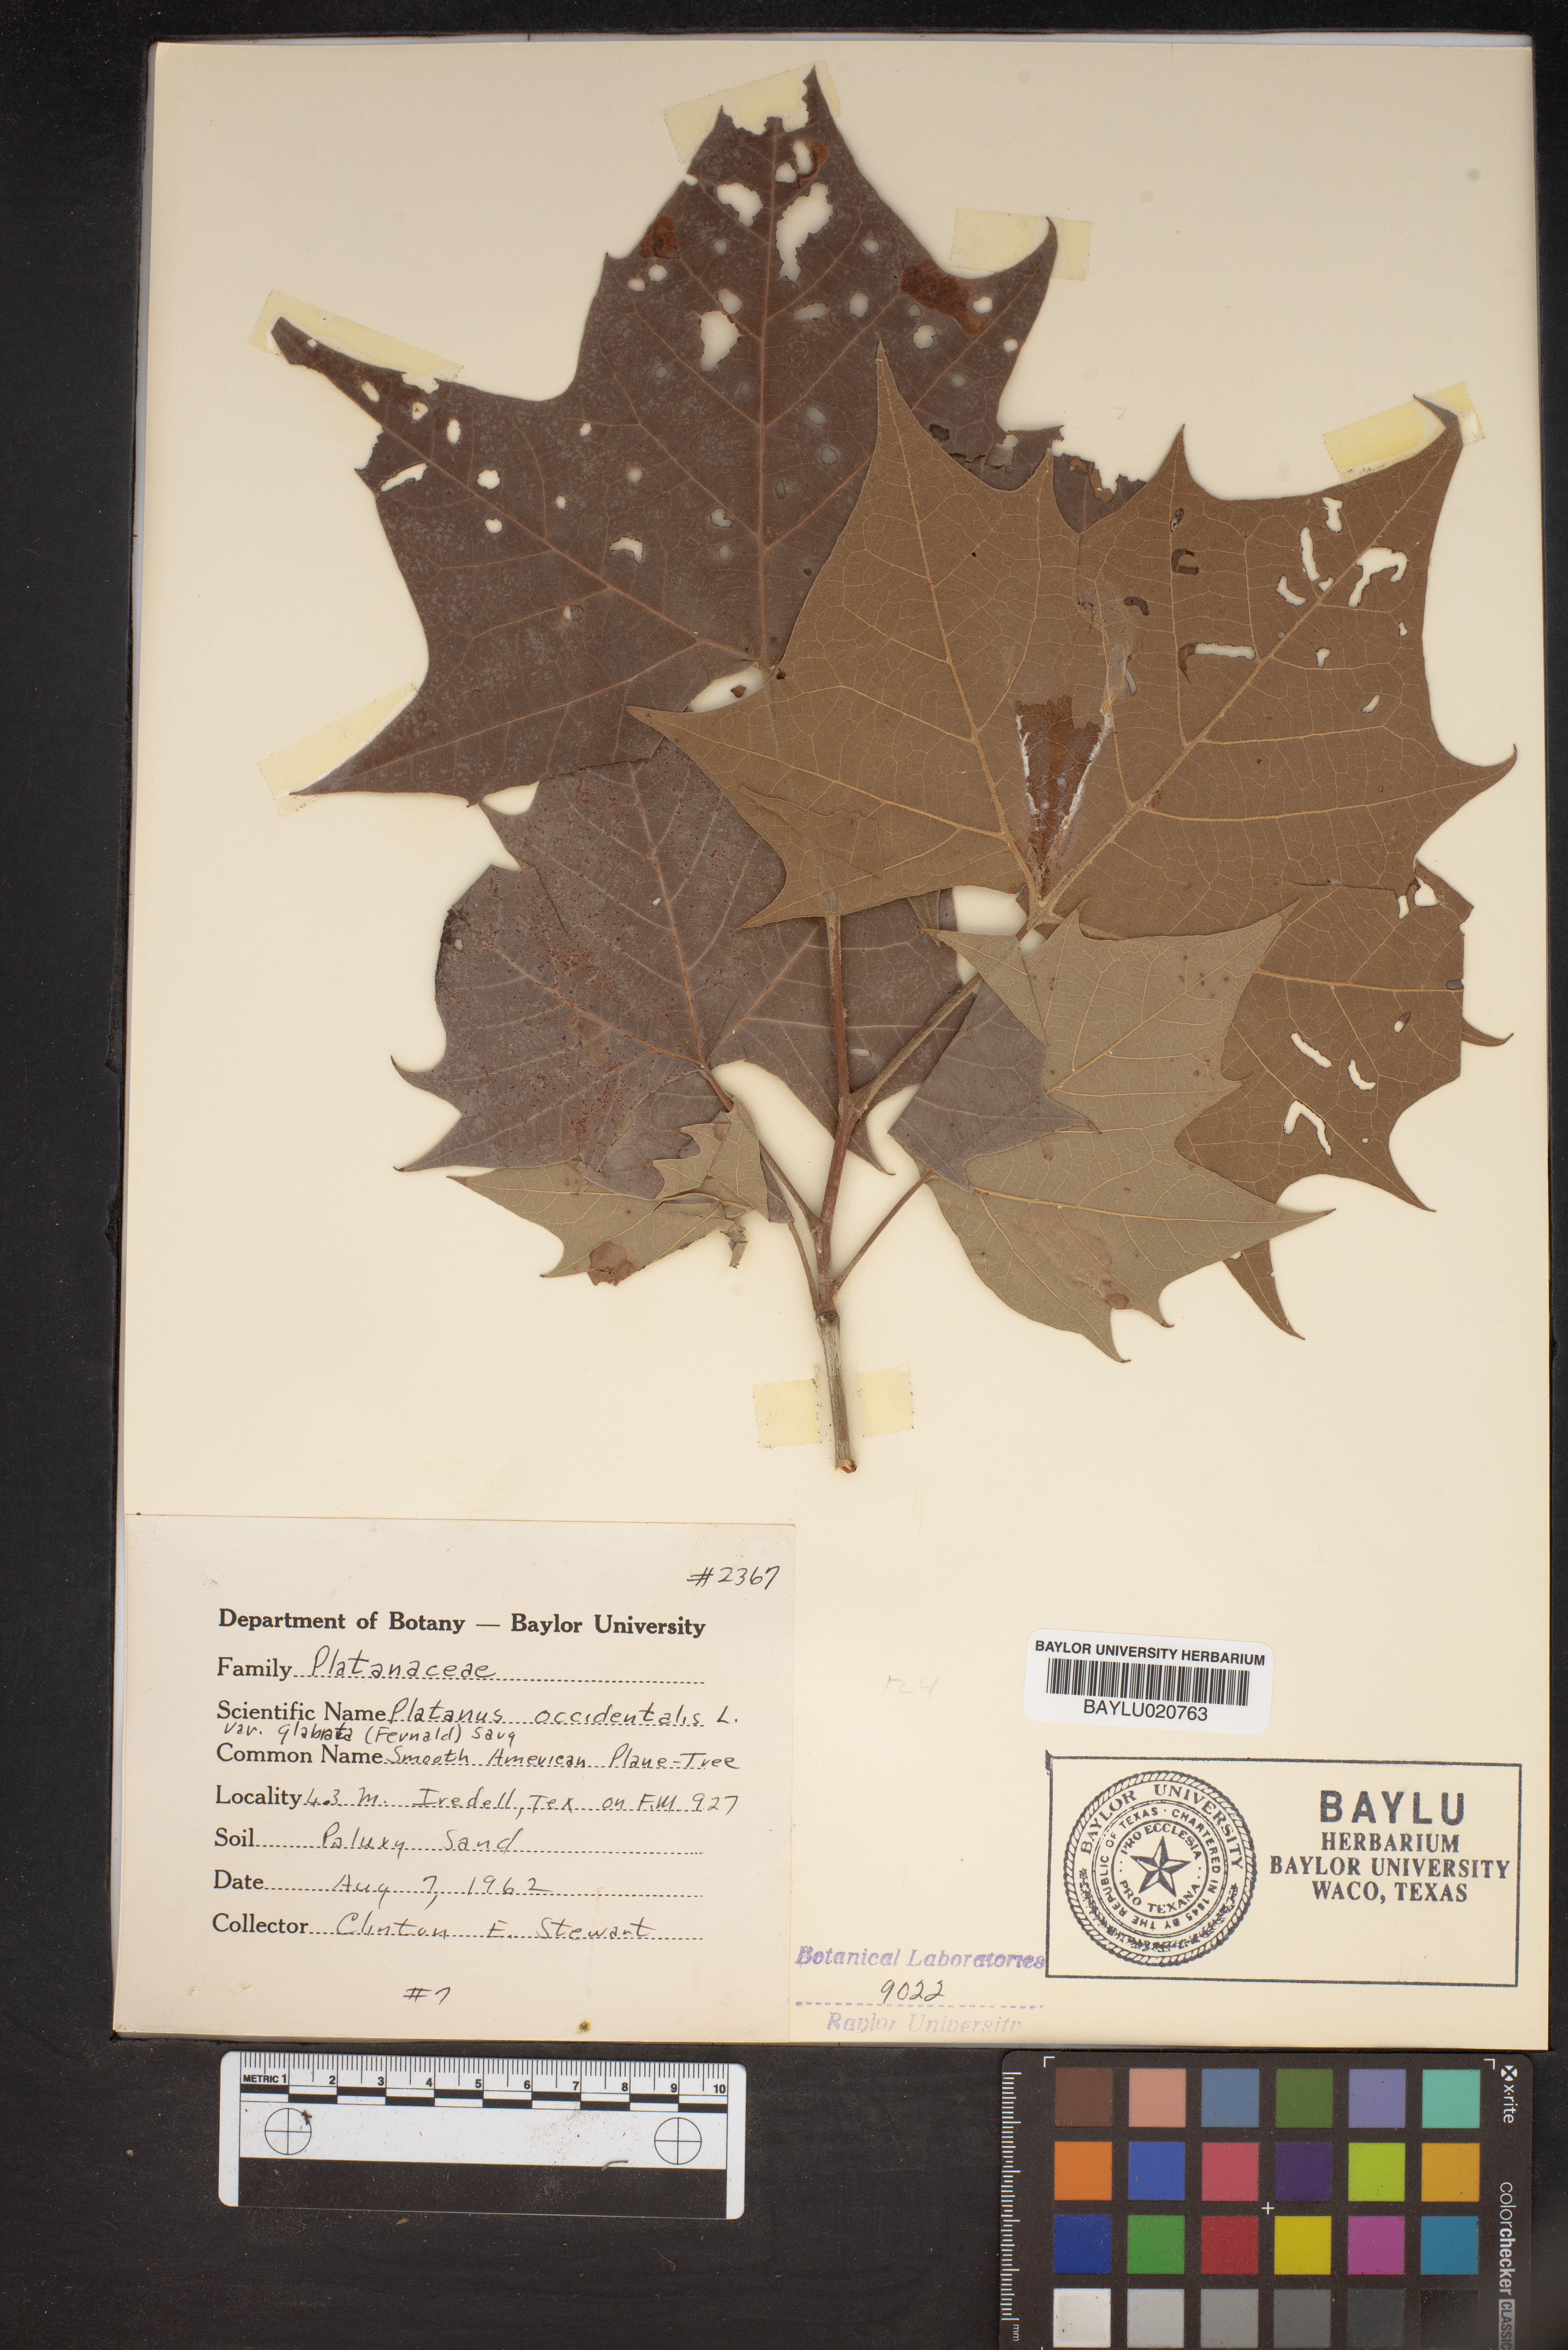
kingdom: Plantae
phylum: Tracheophyta
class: Magnoliopsida
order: Proteales
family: Platanaceae
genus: Platanus
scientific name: Platanus
